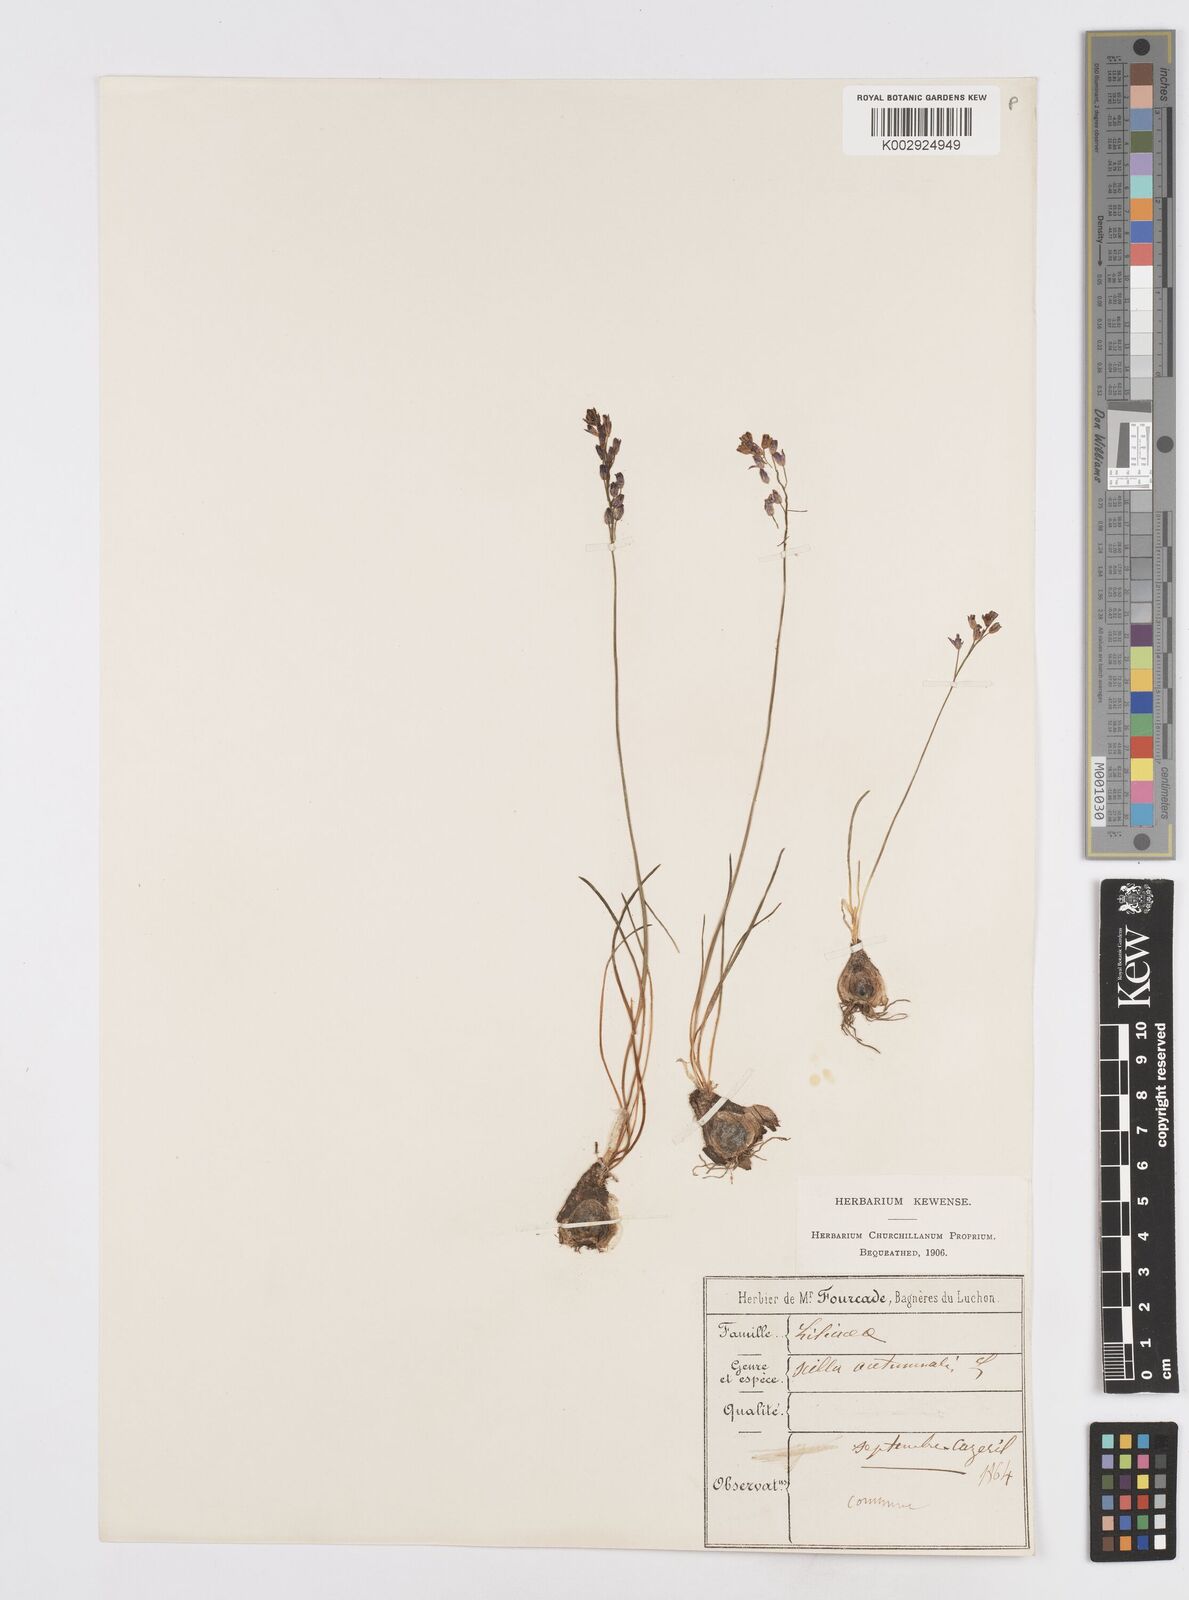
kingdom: Plantae
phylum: Tracheophyta
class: Liliopsida
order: Asparagales
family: Asparagaceae
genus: Prospero
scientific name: Prospero autumnale
